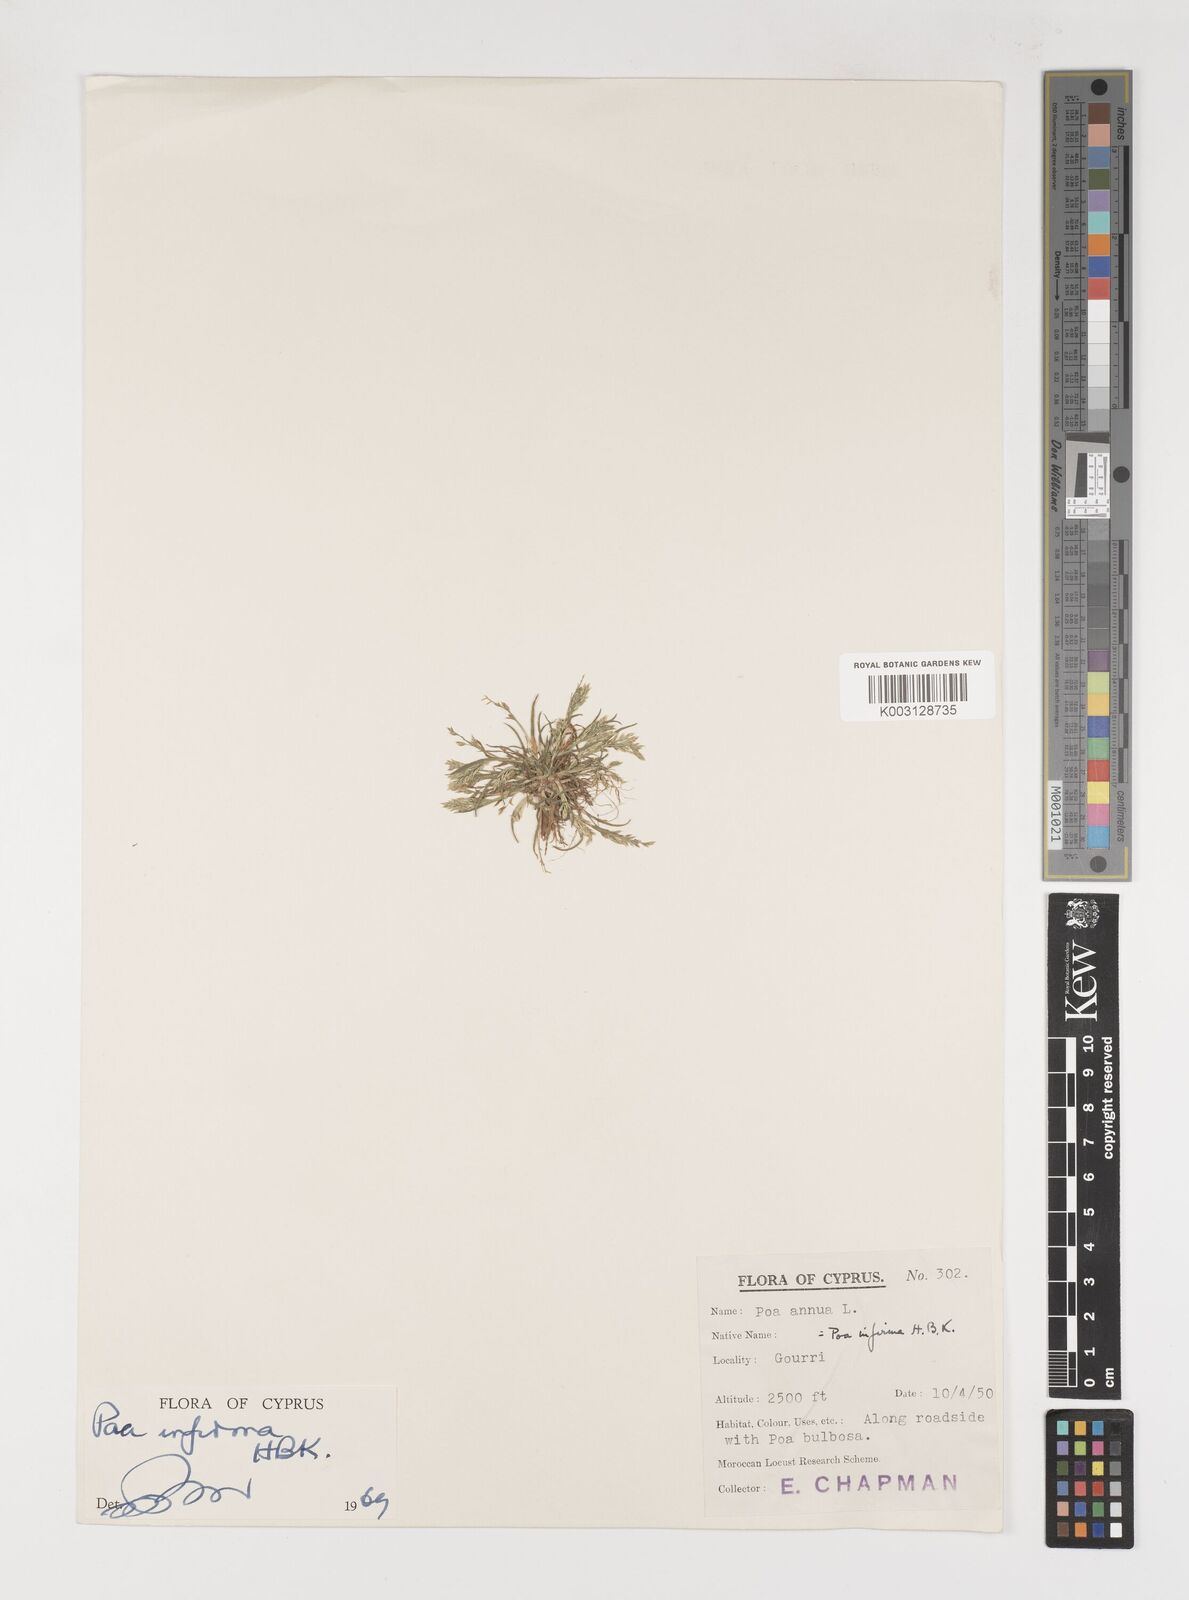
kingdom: Plantae
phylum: Tracheophyta
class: Liliopsida
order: Poales
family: Poaceae
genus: Poa
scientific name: Poa infirma
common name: Weak bluegrass
